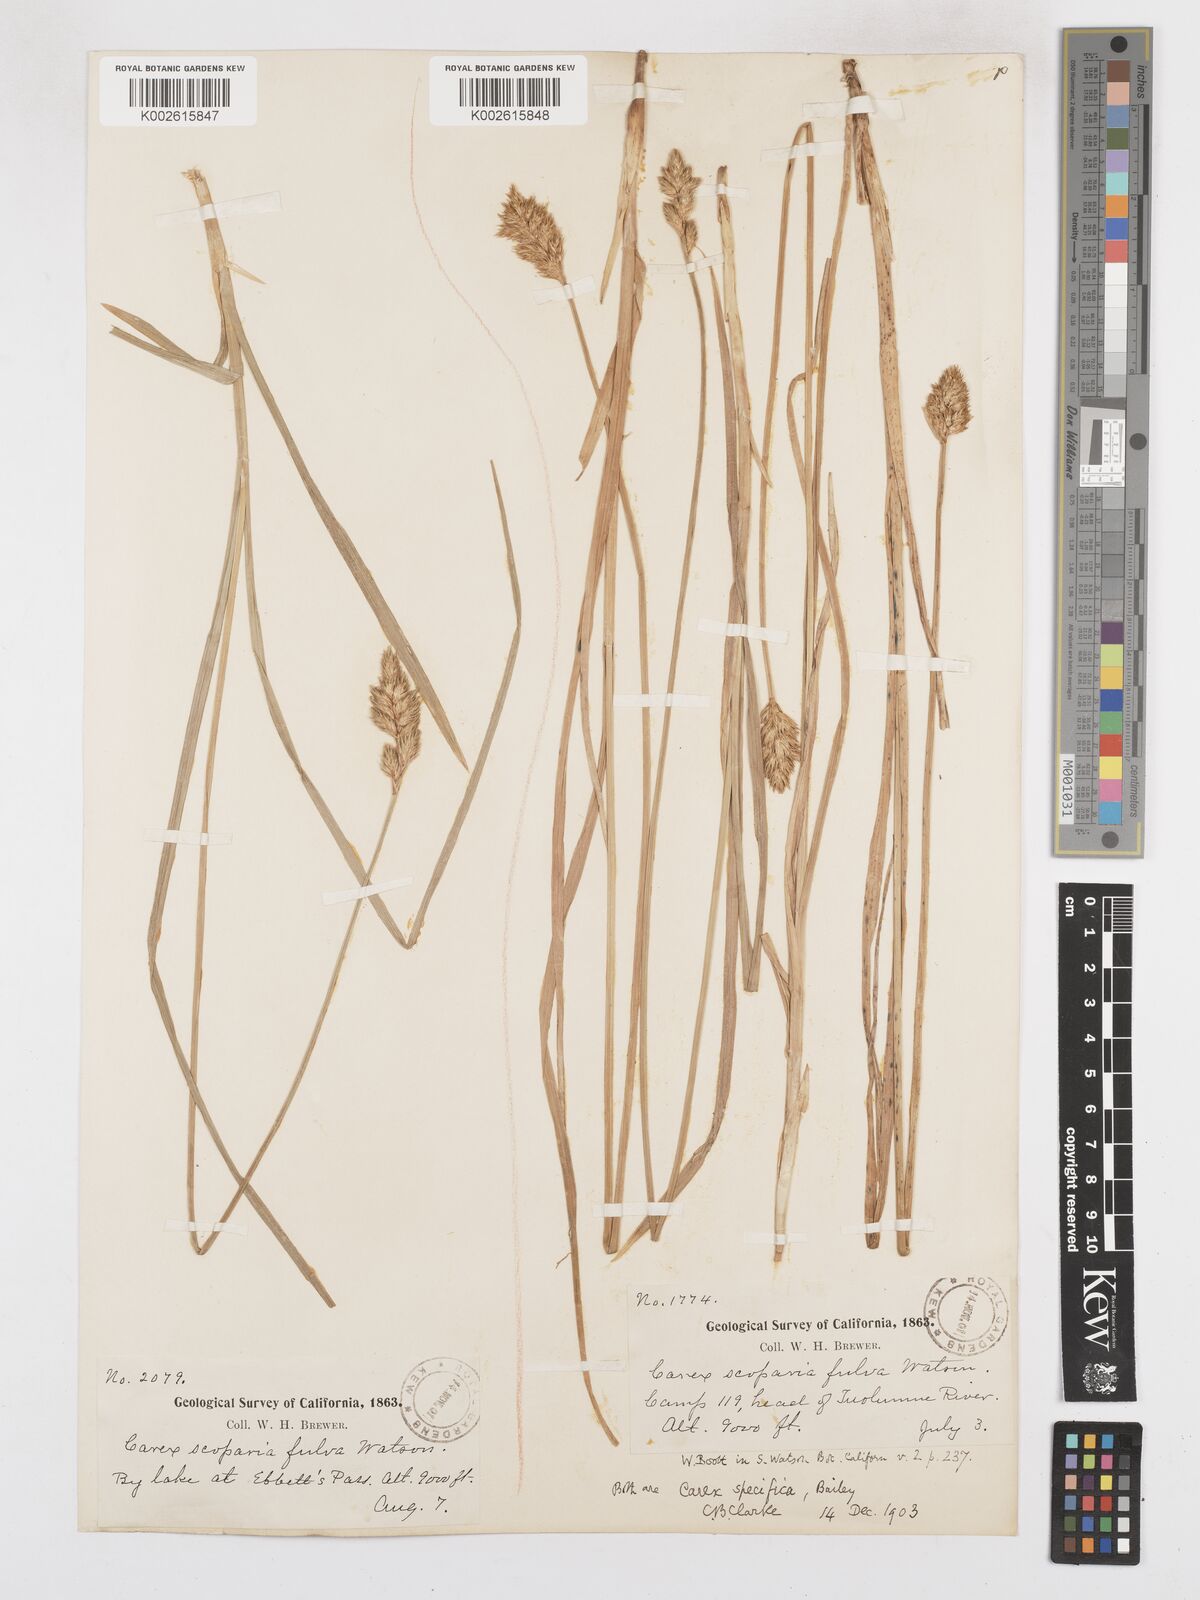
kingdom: Plantae
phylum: Tracheophyta
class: Liliopsida
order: Poales
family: Cyperaceae
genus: Carex
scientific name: Carex specifica
